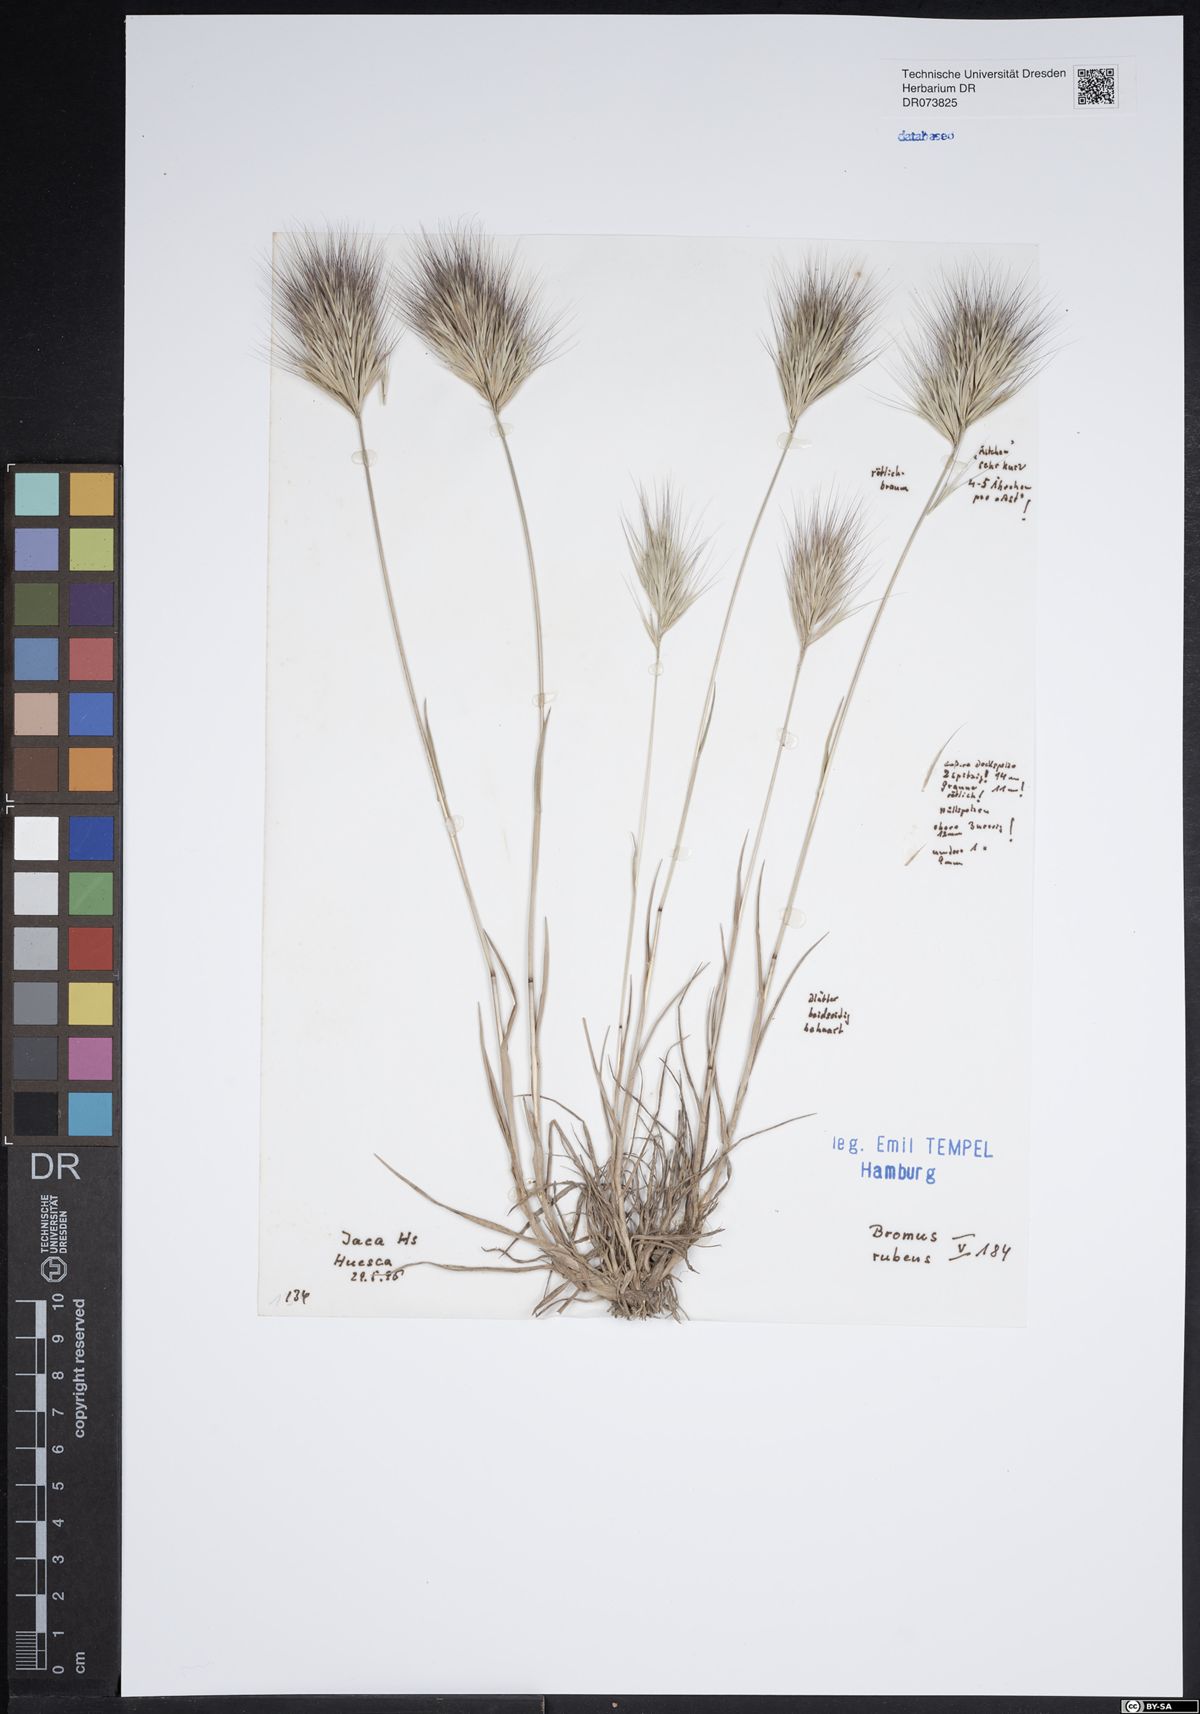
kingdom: Plantae
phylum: Tracheophyta
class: Liliopsida
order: Poales
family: Poaceae
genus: Bromus
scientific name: Bromus rubens
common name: Red brome
